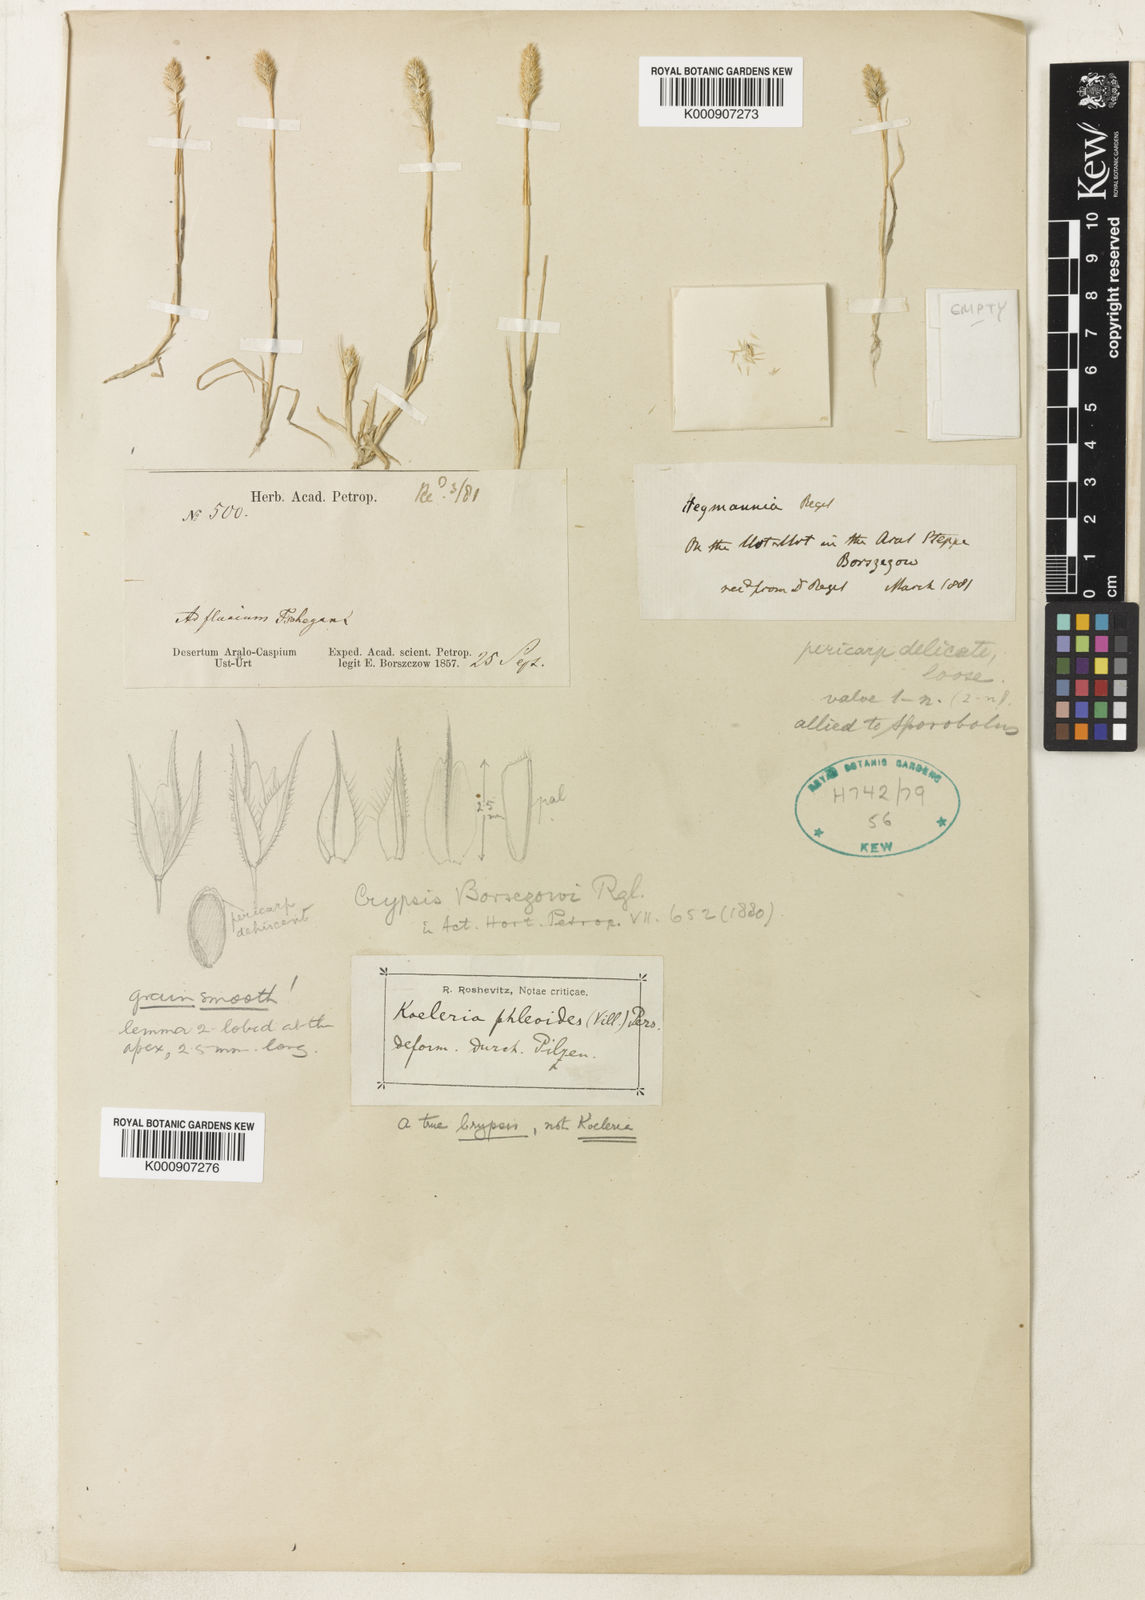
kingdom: Plantae
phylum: Tracheophyta
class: Liliopsida
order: Poales
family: Poaceae
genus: Sporobolus
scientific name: Sporobolus borszczowii
